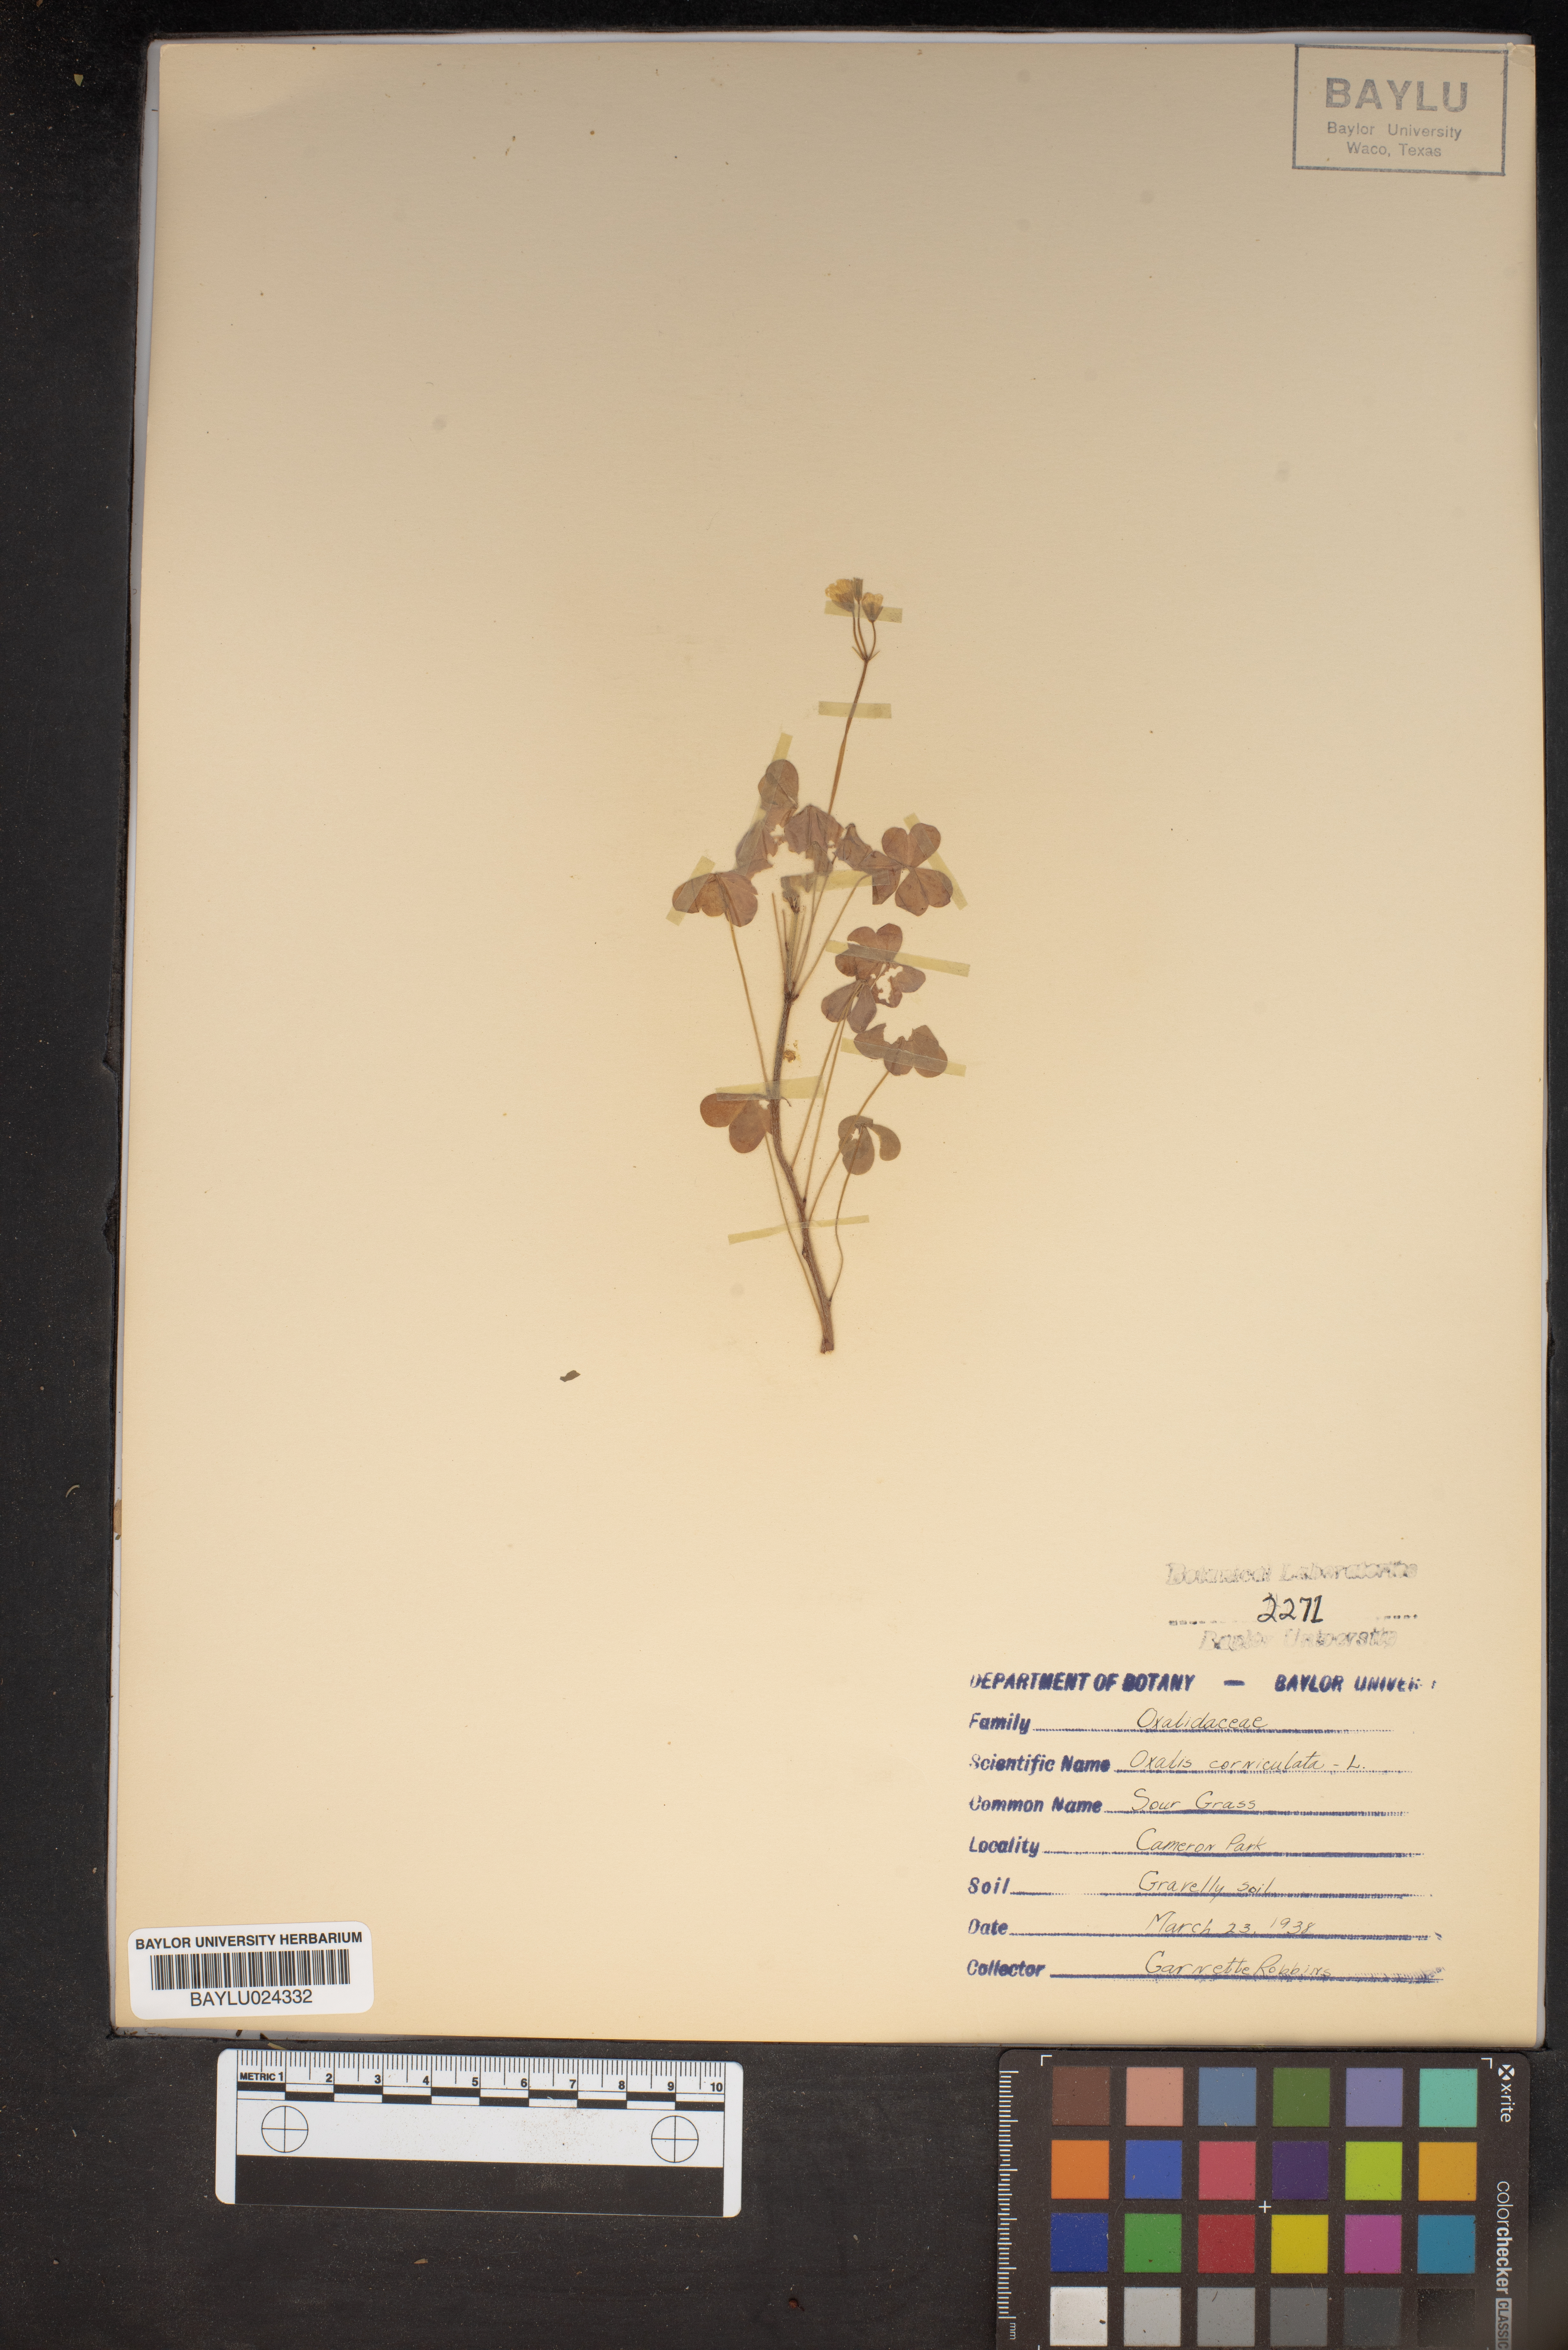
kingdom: Plantae
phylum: Tracheophyta
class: Magnoliopsida
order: Oxalidales
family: Oxalidaceae
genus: Oxalis
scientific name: Oxalis corniculata
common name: Procumbent yellow-sorrel
